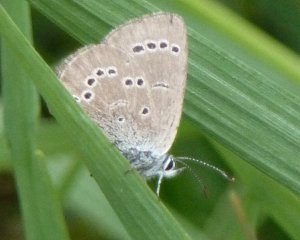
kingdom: Animalia
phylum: Arthropoda
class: Insecta
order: Lepidoptera
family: Lycaenidae
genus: Glaucopsyche
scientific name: Glaucopsyche lygdamus
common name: Silvery Blue
